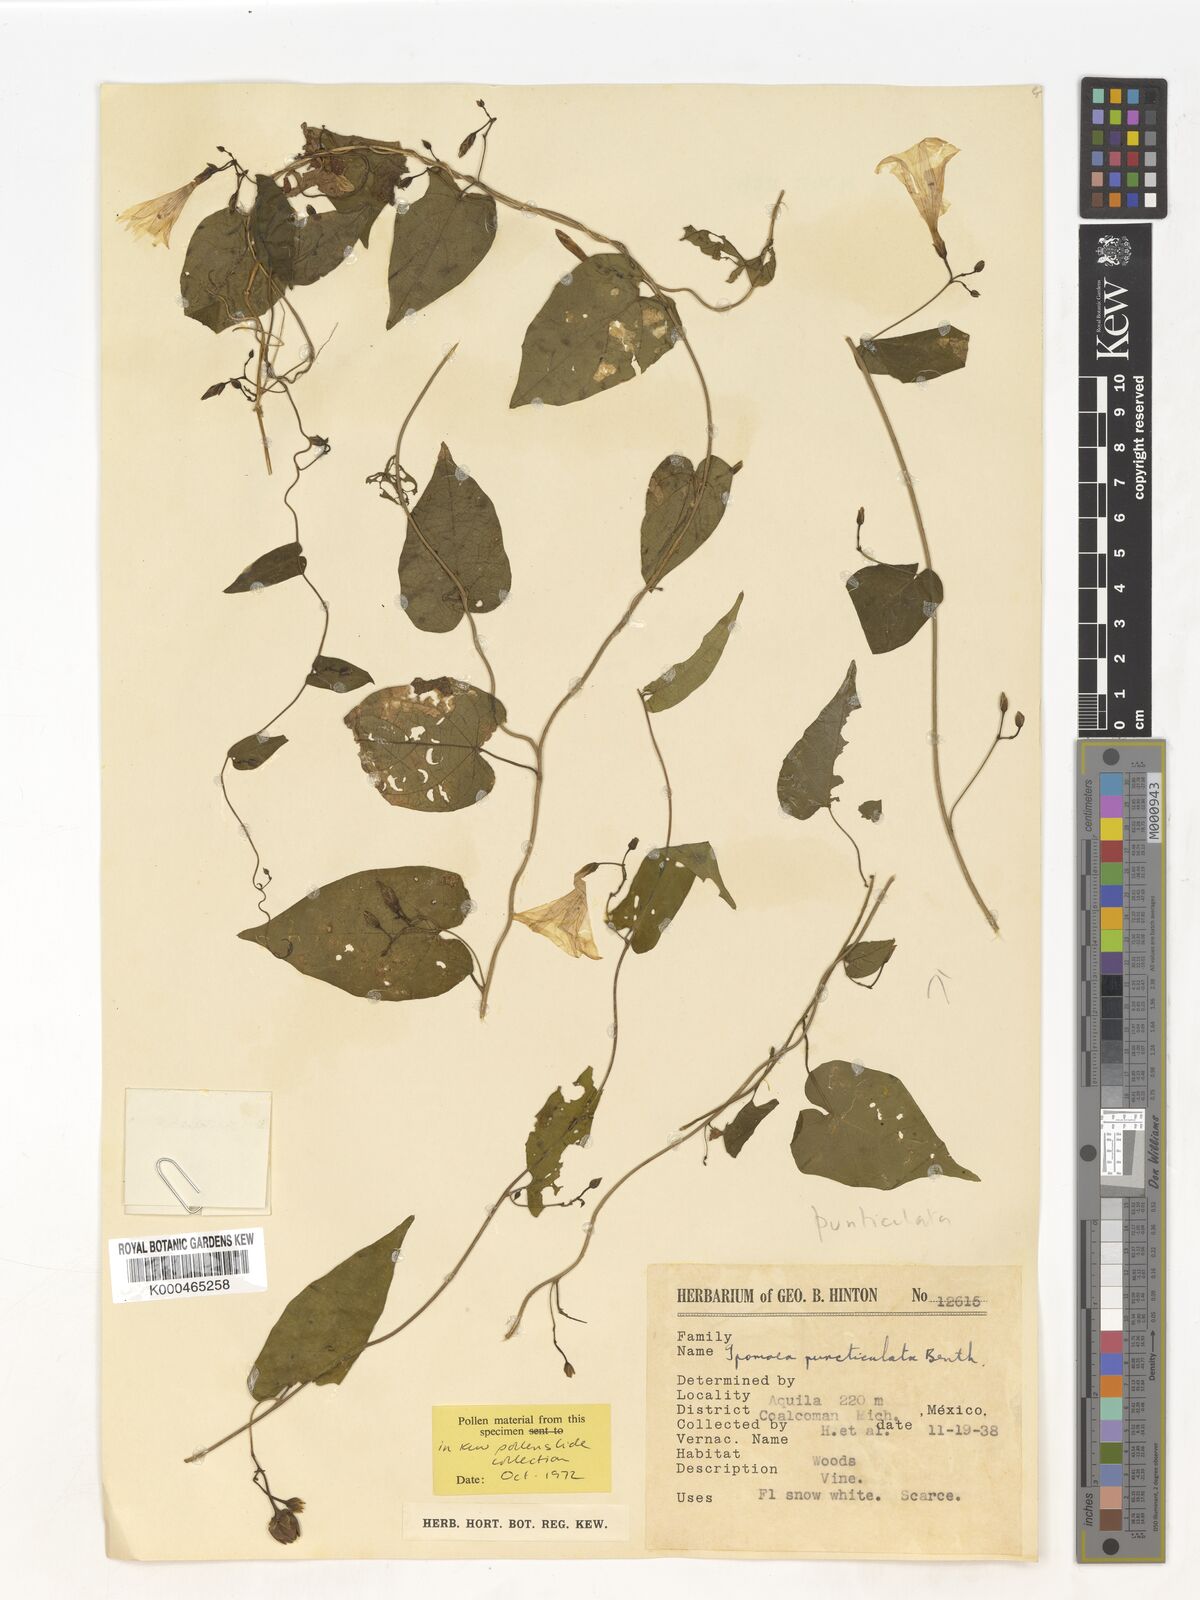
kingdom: Plantae
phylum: Tracheophyta
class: Magnoliopsida
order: Solanales
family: Convolvulaceae
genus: Ipomoea
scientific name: Ipomoea puncticulata
